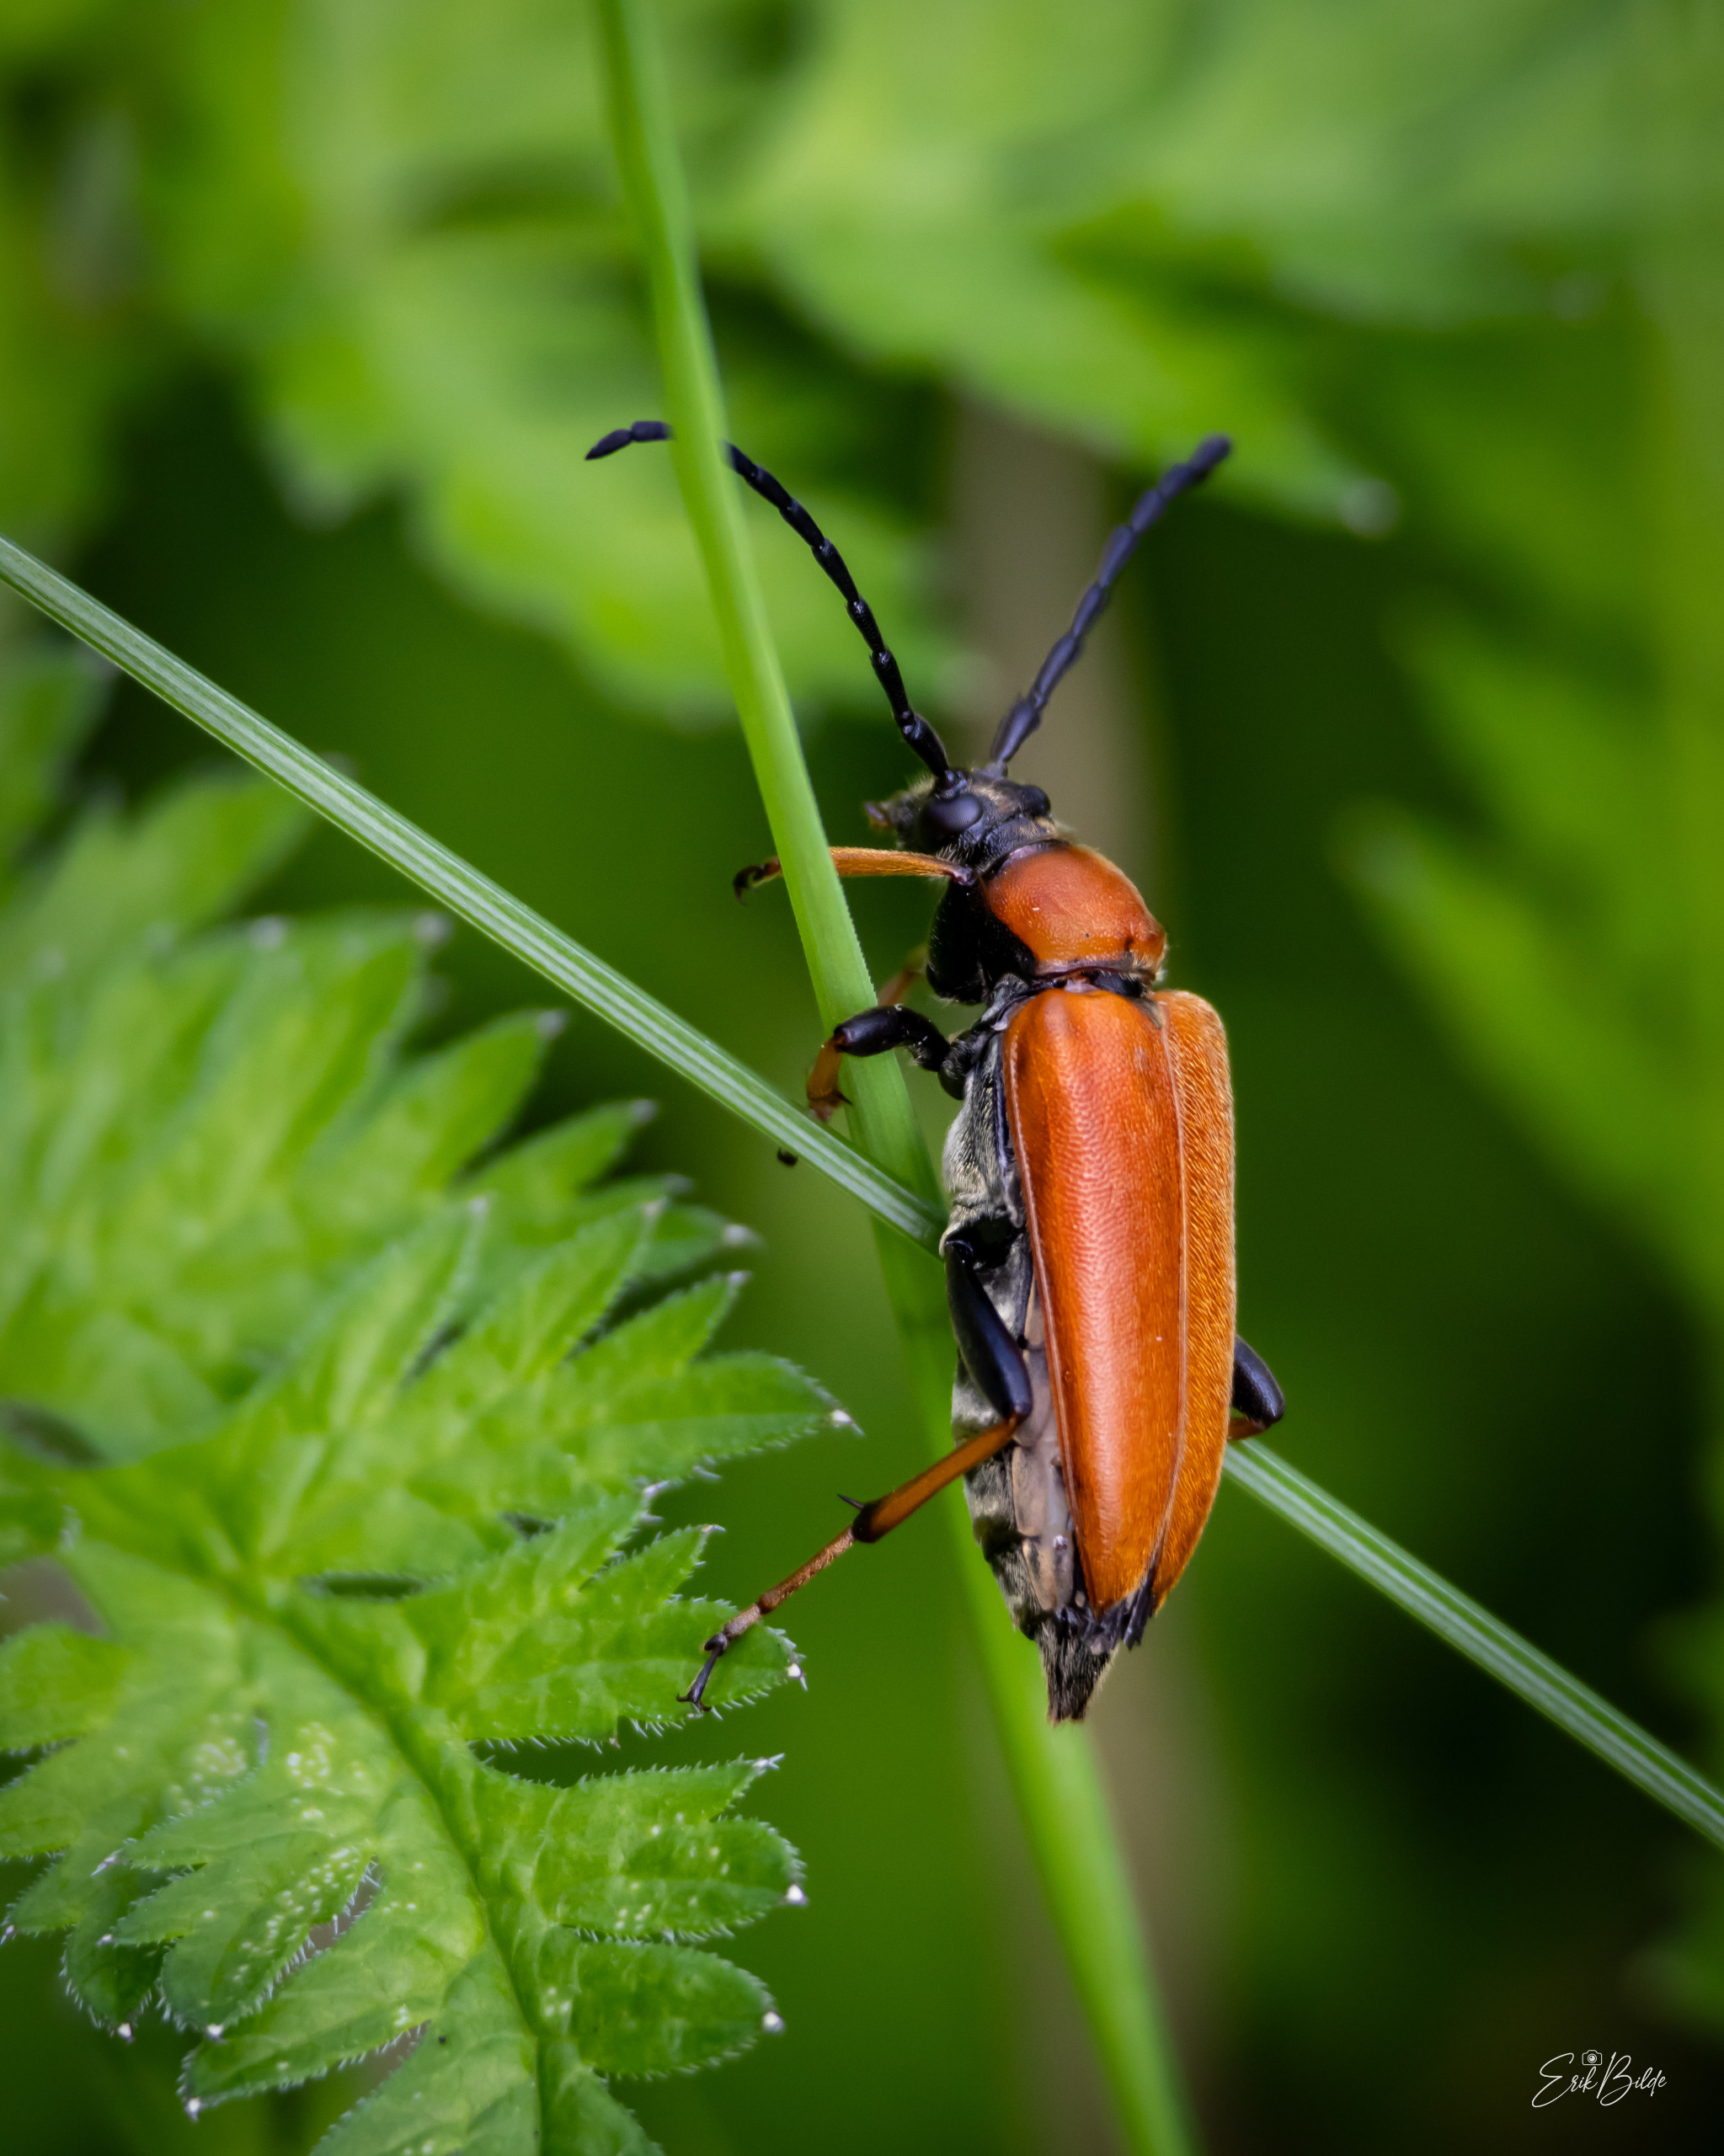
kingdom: Animalia
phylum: Arthropoda
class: Insecta
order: Coleoptera
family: Cerambycidae
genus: Stictoleptura
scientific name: Stictoleptura rubra
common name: Rød blomsterbuk
